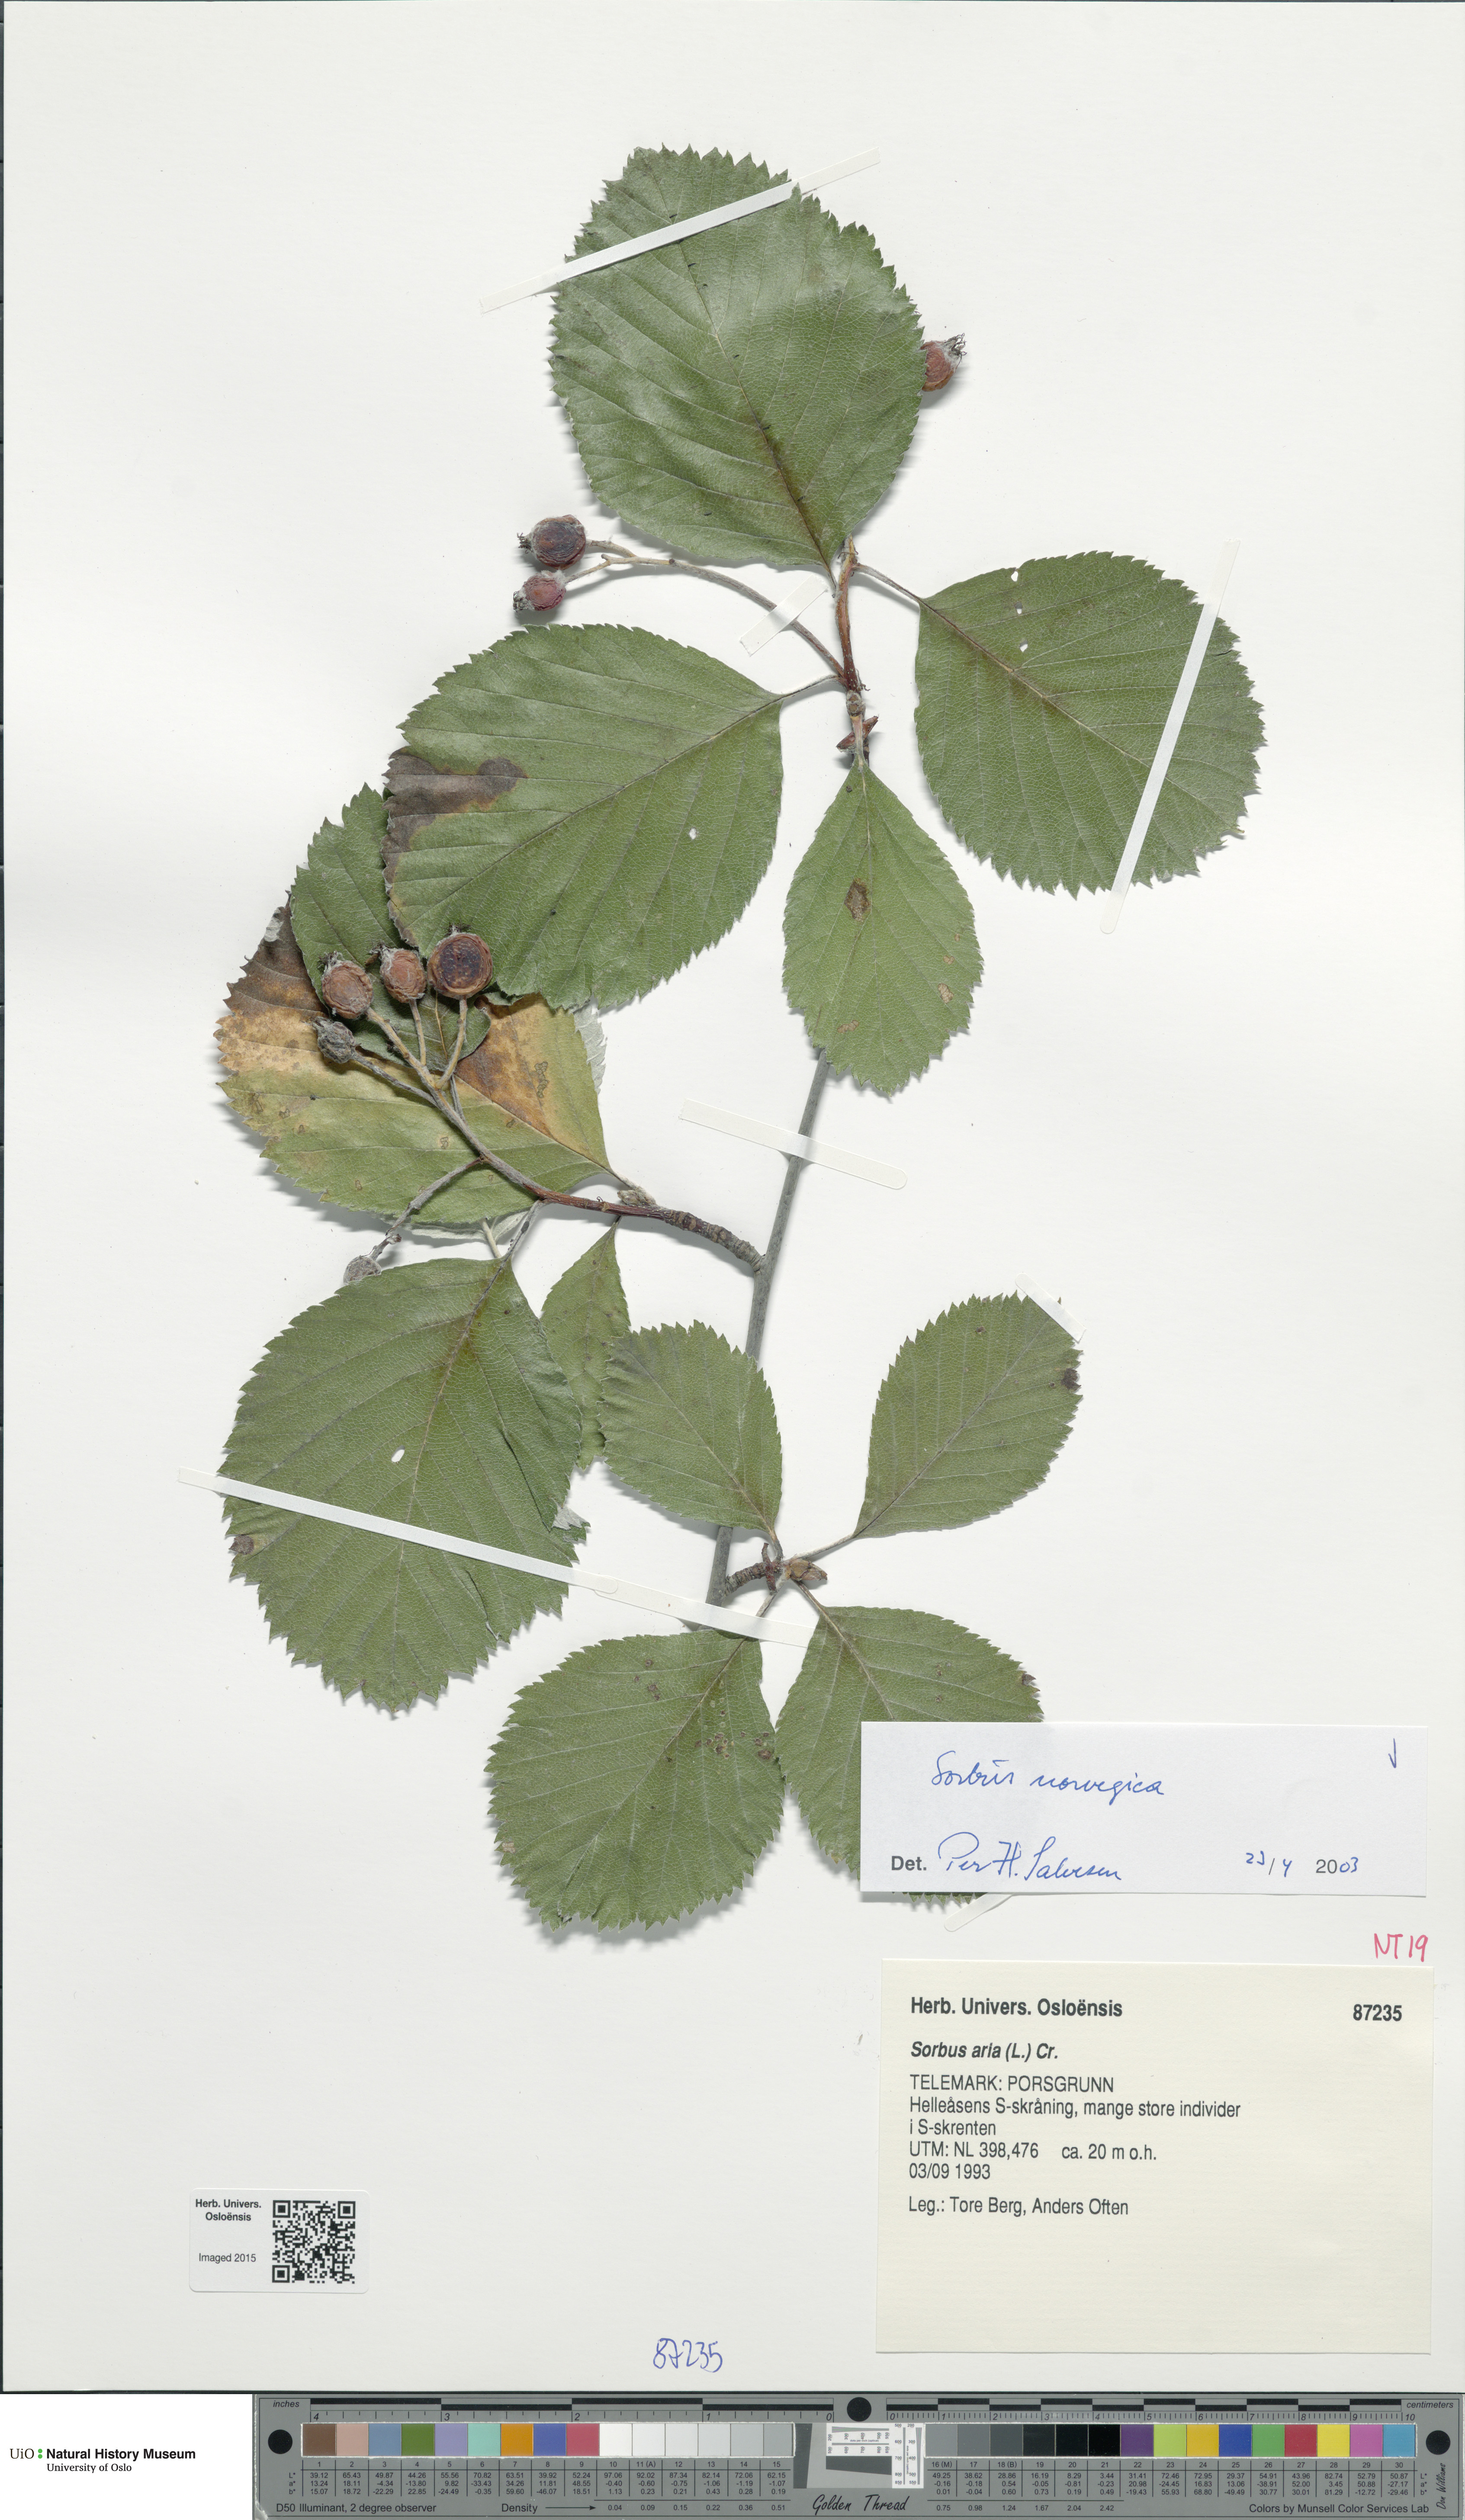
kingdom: Plantae
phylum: Tracheophyta
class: Magnoliopsida
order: Rosales
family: Rosaceae
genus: Aria
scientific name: Aria obtusifolia
